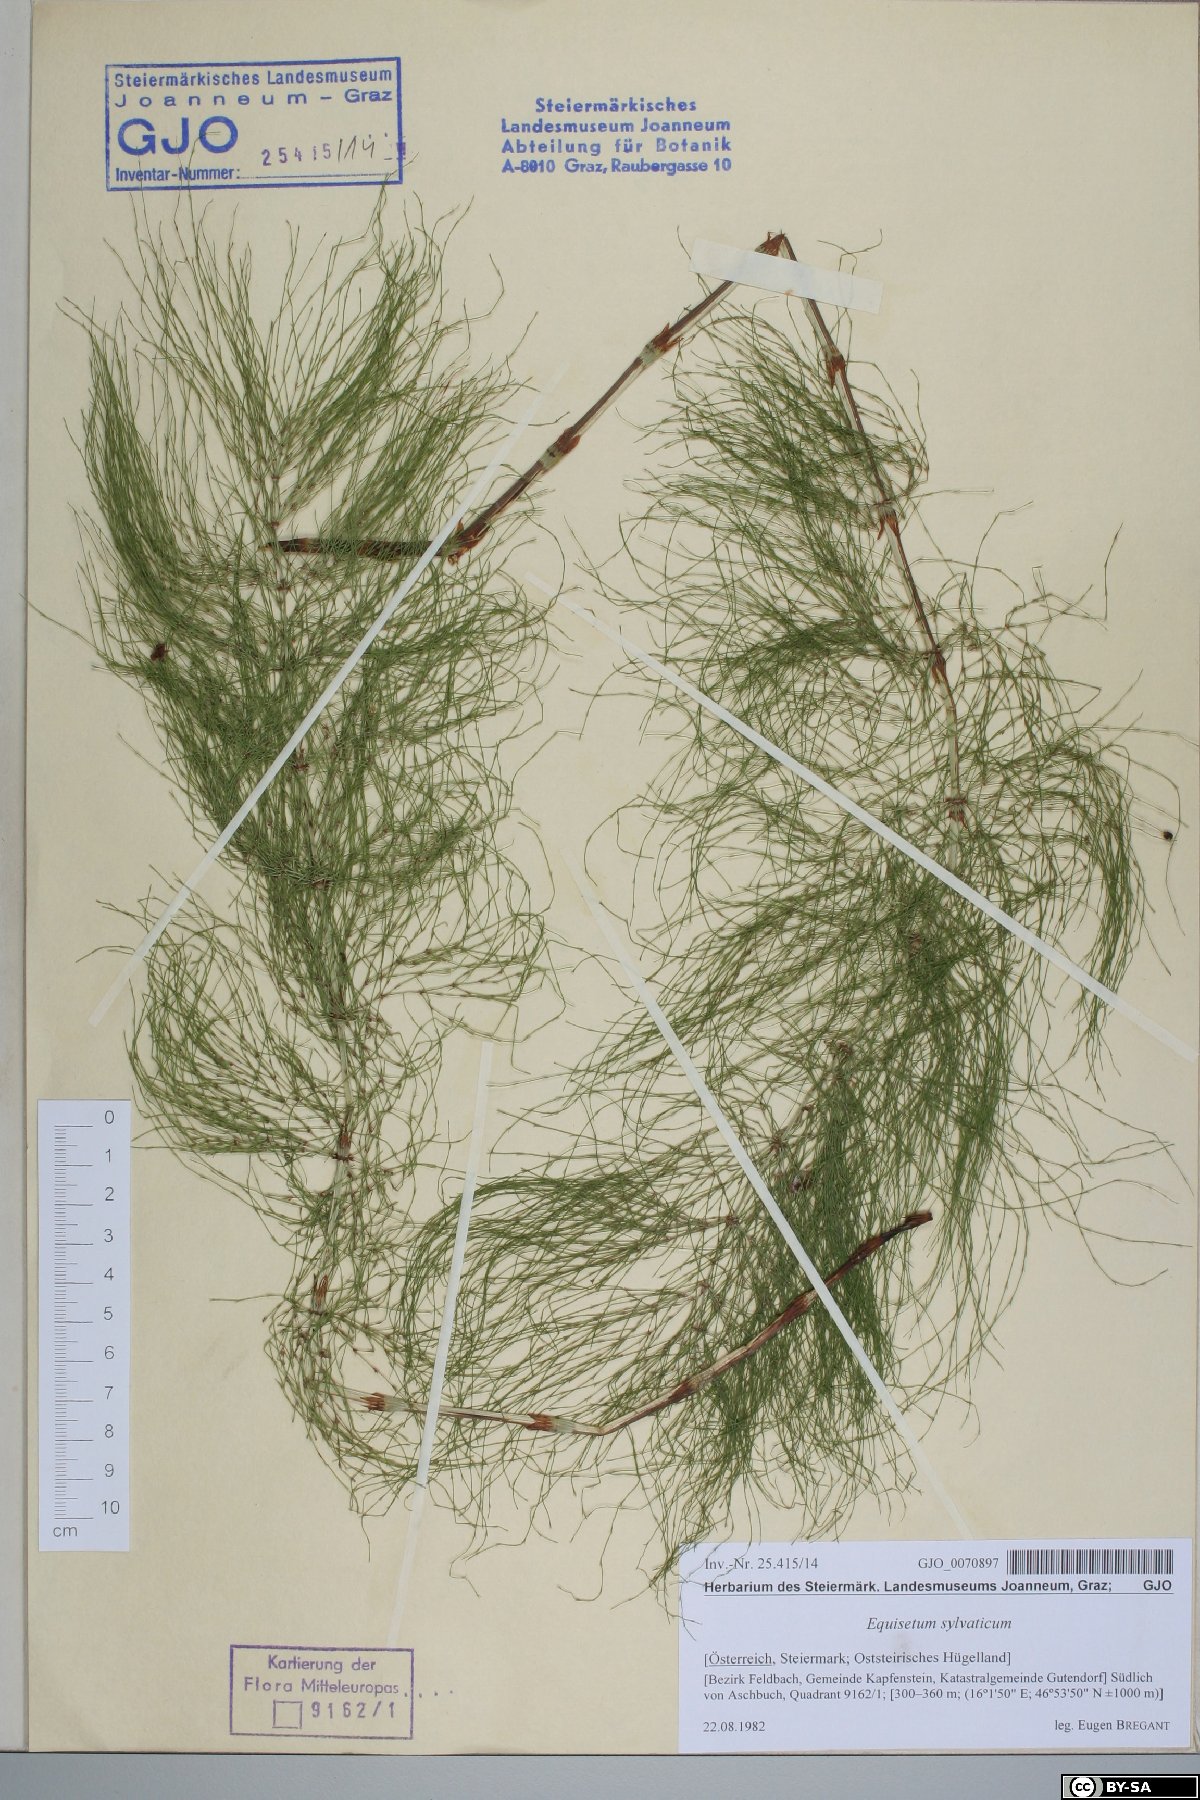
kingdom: Plantae
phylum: Tracheophyta
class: Polypodiopsida
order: Equisetales
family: Equisetaceae
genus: Equisetum
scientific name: Equisetum sylvaticum
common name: Wood horsetail
